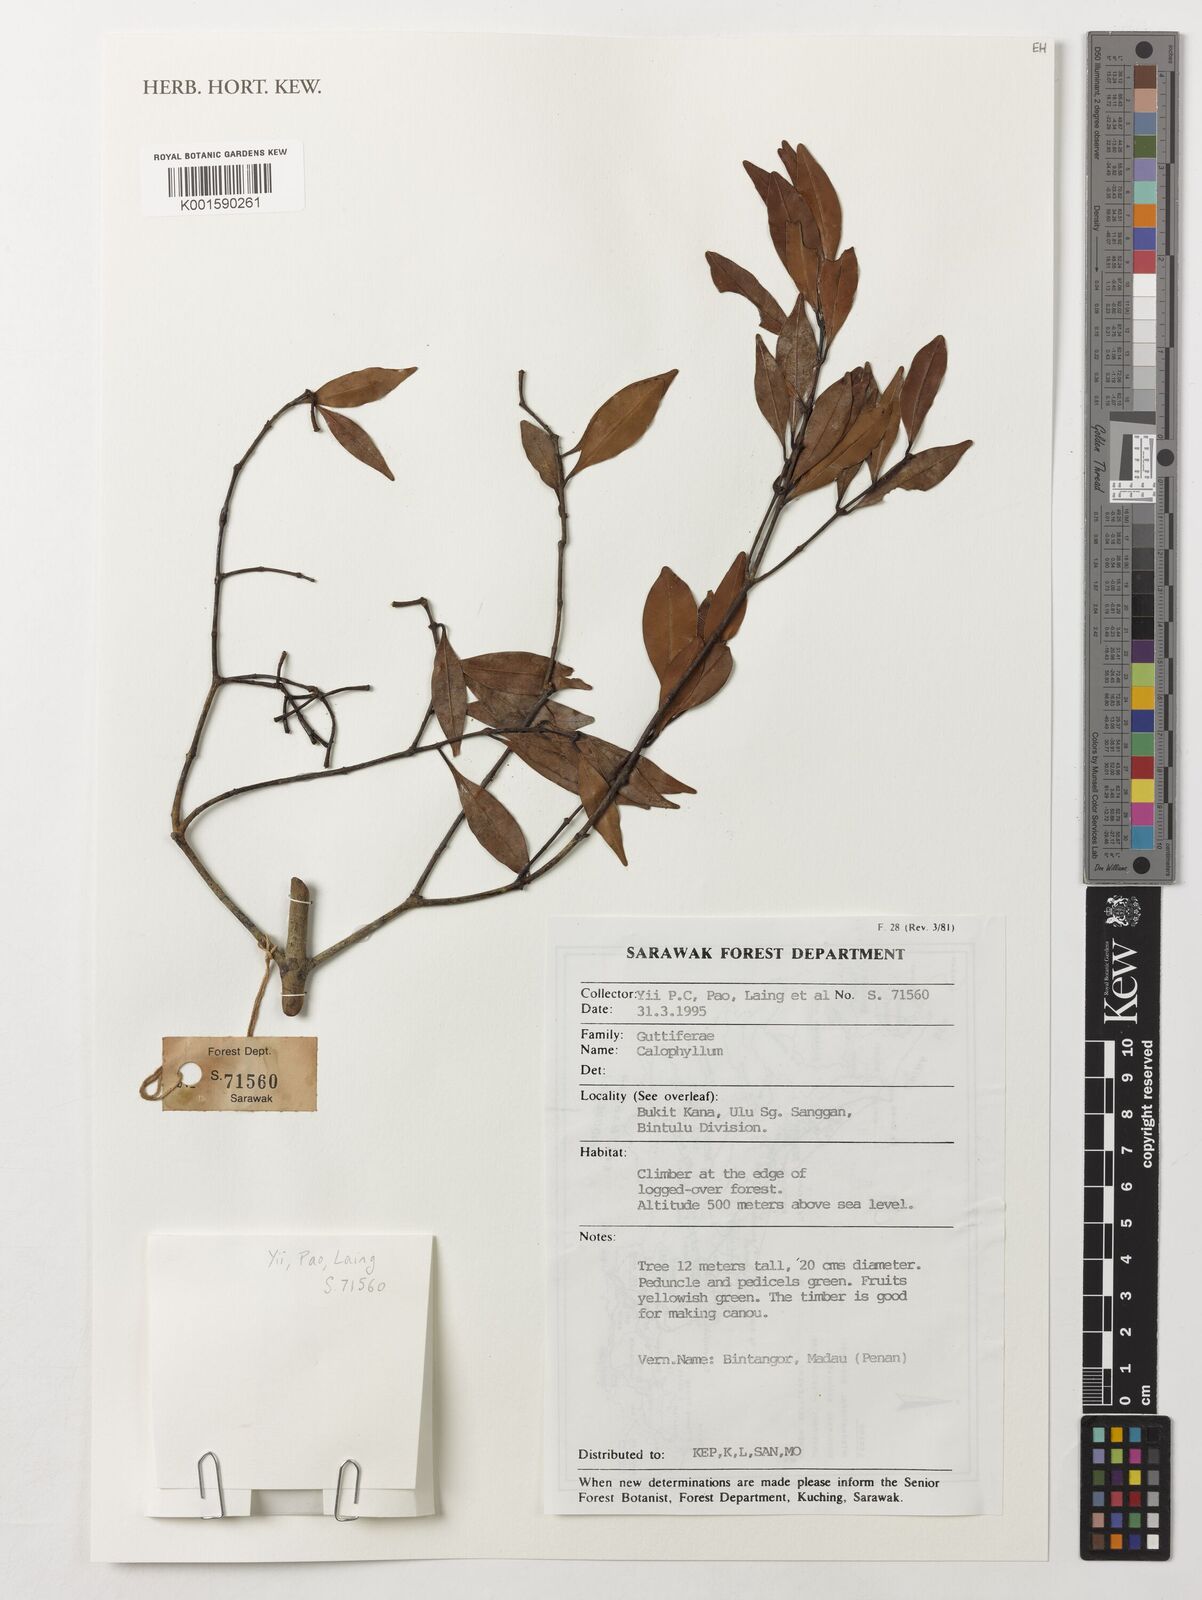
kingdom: Plantae
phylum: Tracheophyta
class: Magnoliopsida
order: Malpighiales
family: Calophyllaceae
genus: Calophyllum
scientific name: Calophyllum
